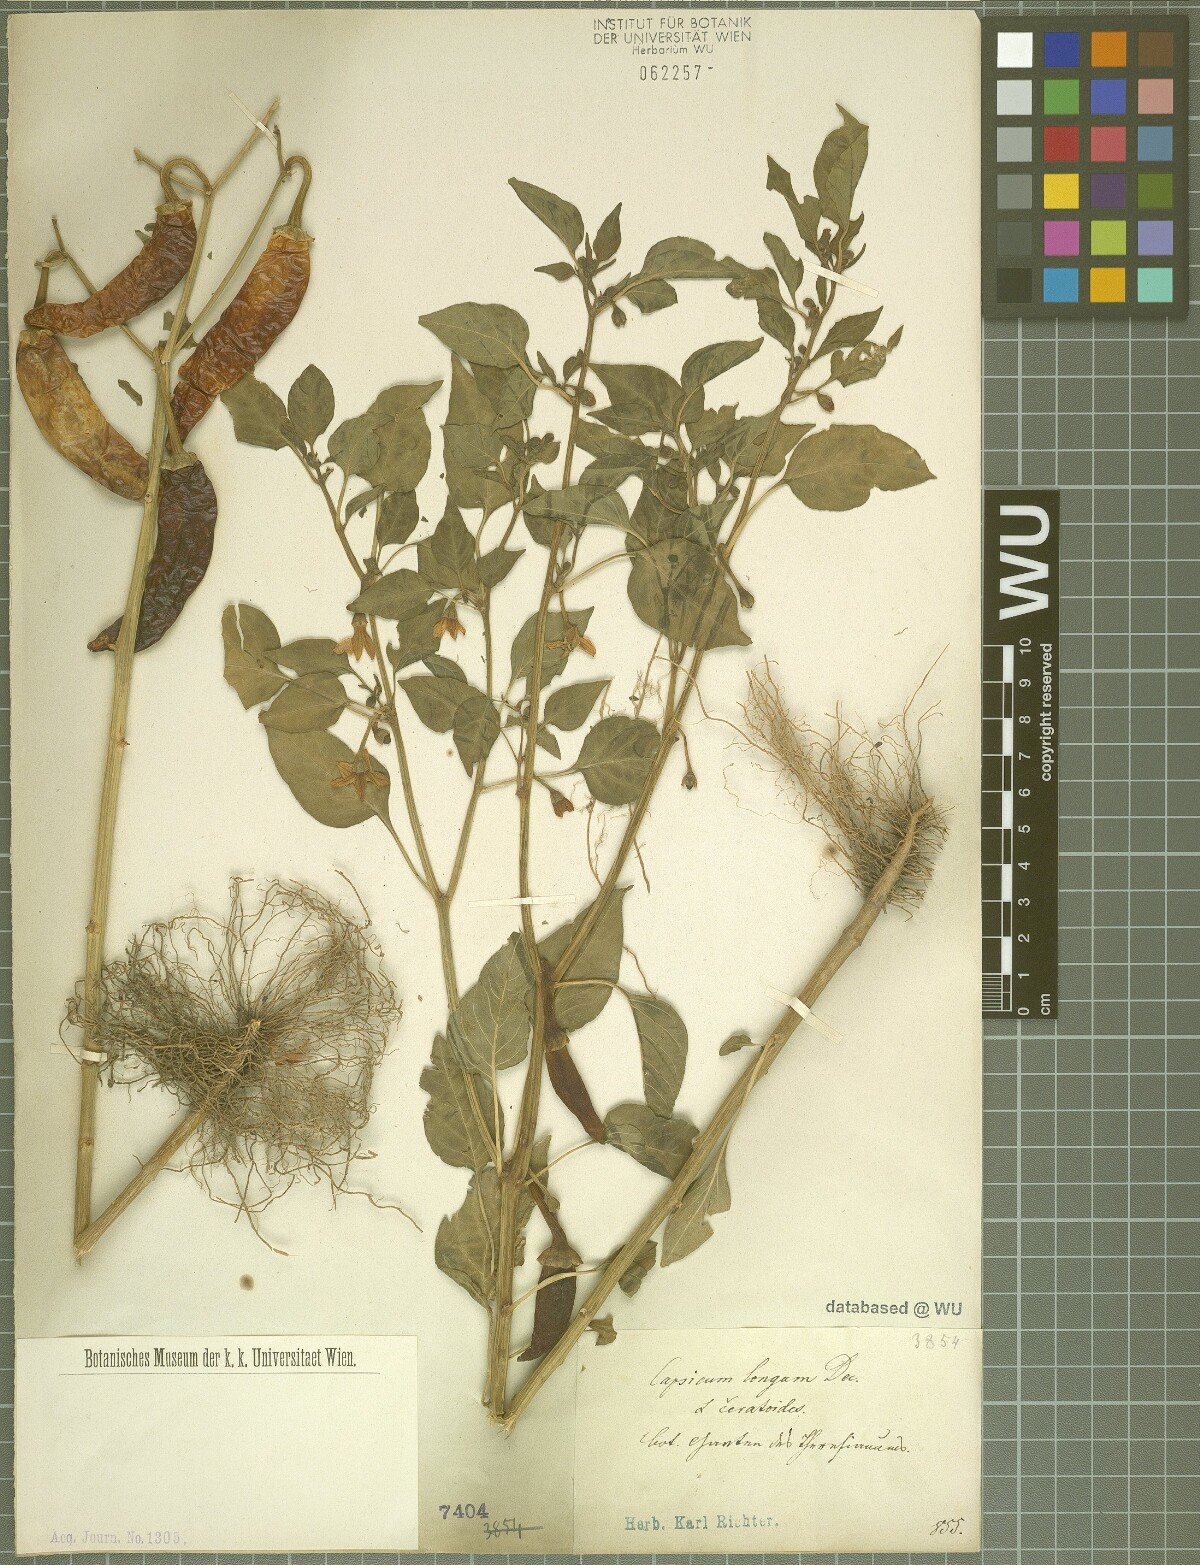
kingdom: Plantae
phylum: Tracheophyta
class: Magnoliopsida
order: Solanales
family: Solanaceae
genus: Capsicum
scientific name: Capsicum annuum
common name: Sweet pepper
